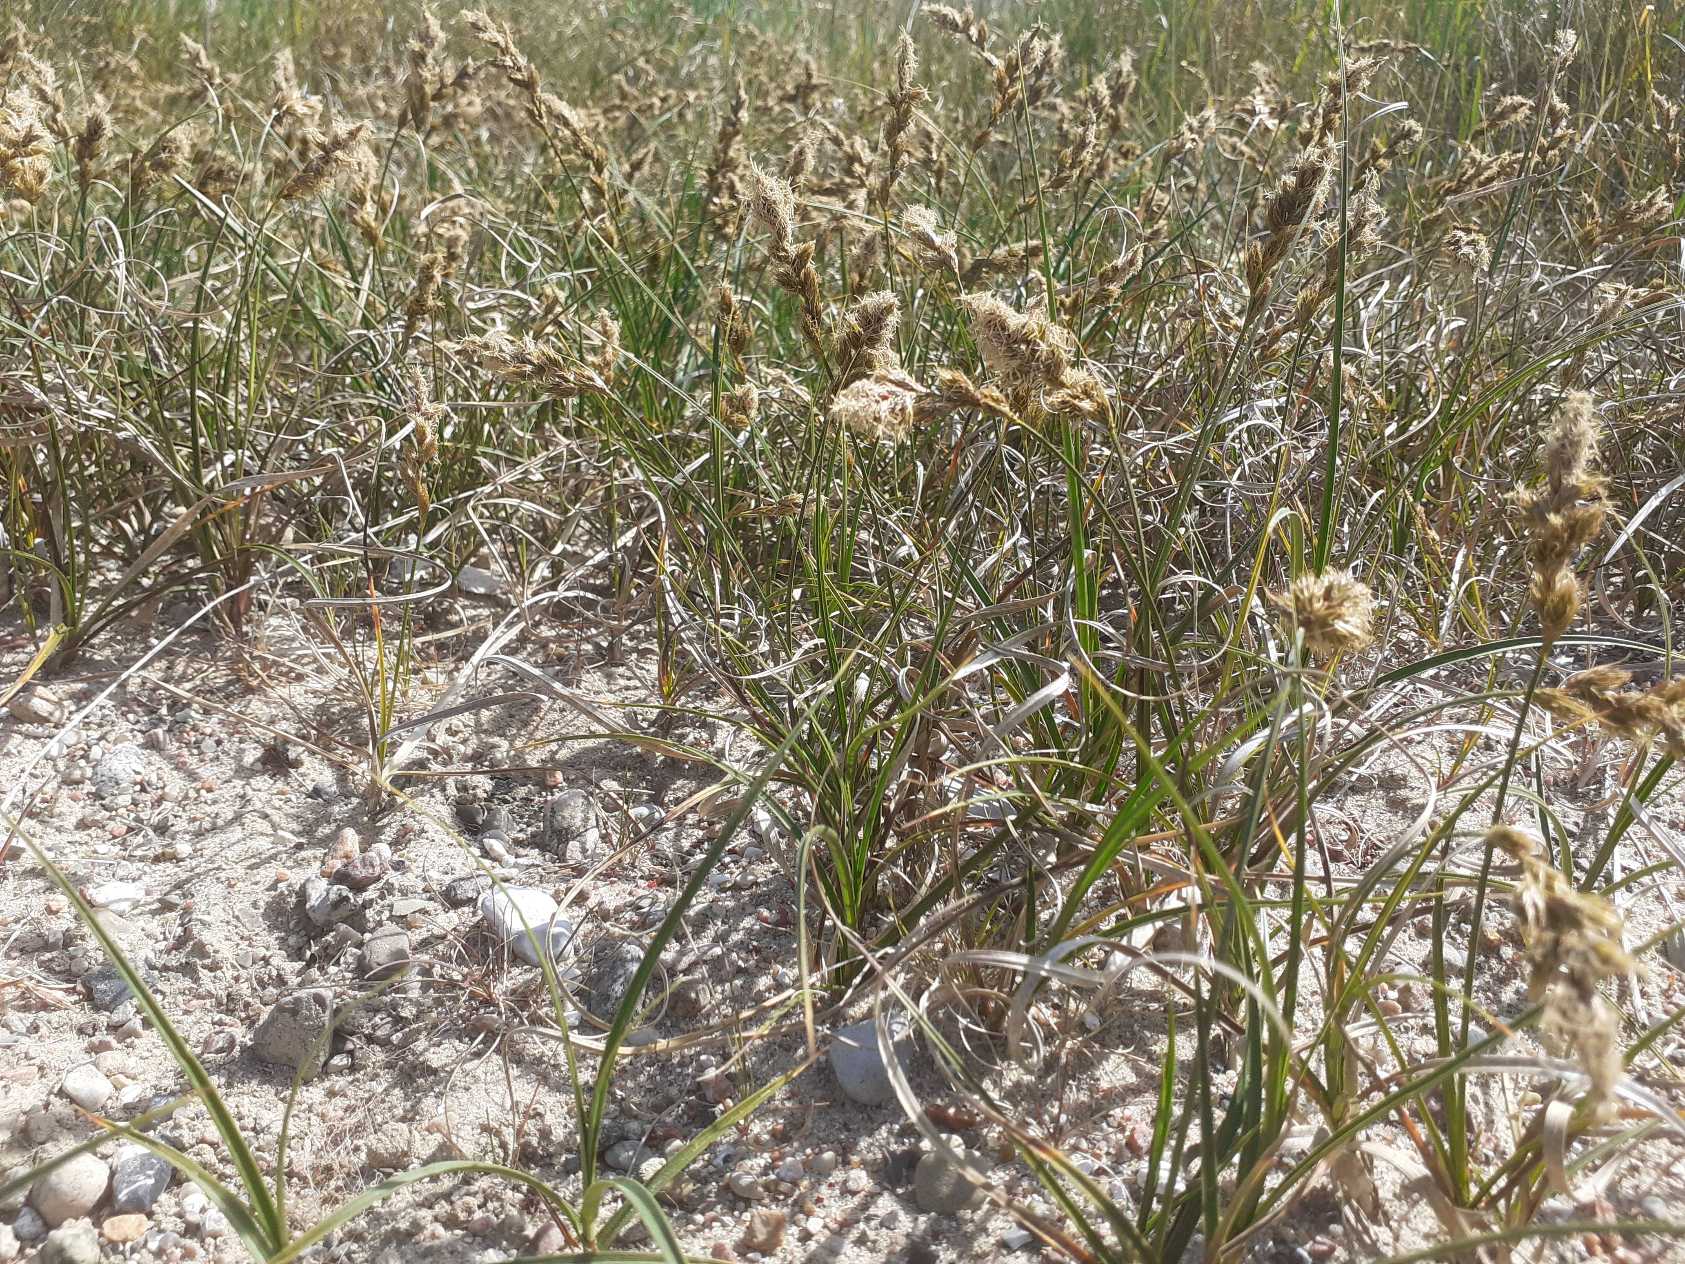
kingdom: Plantae
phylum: Tracheophyta
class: Liliopsida
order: Poales
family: Cyperaceae
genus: Carex
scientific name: Carex arenaria
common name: Sand-star
